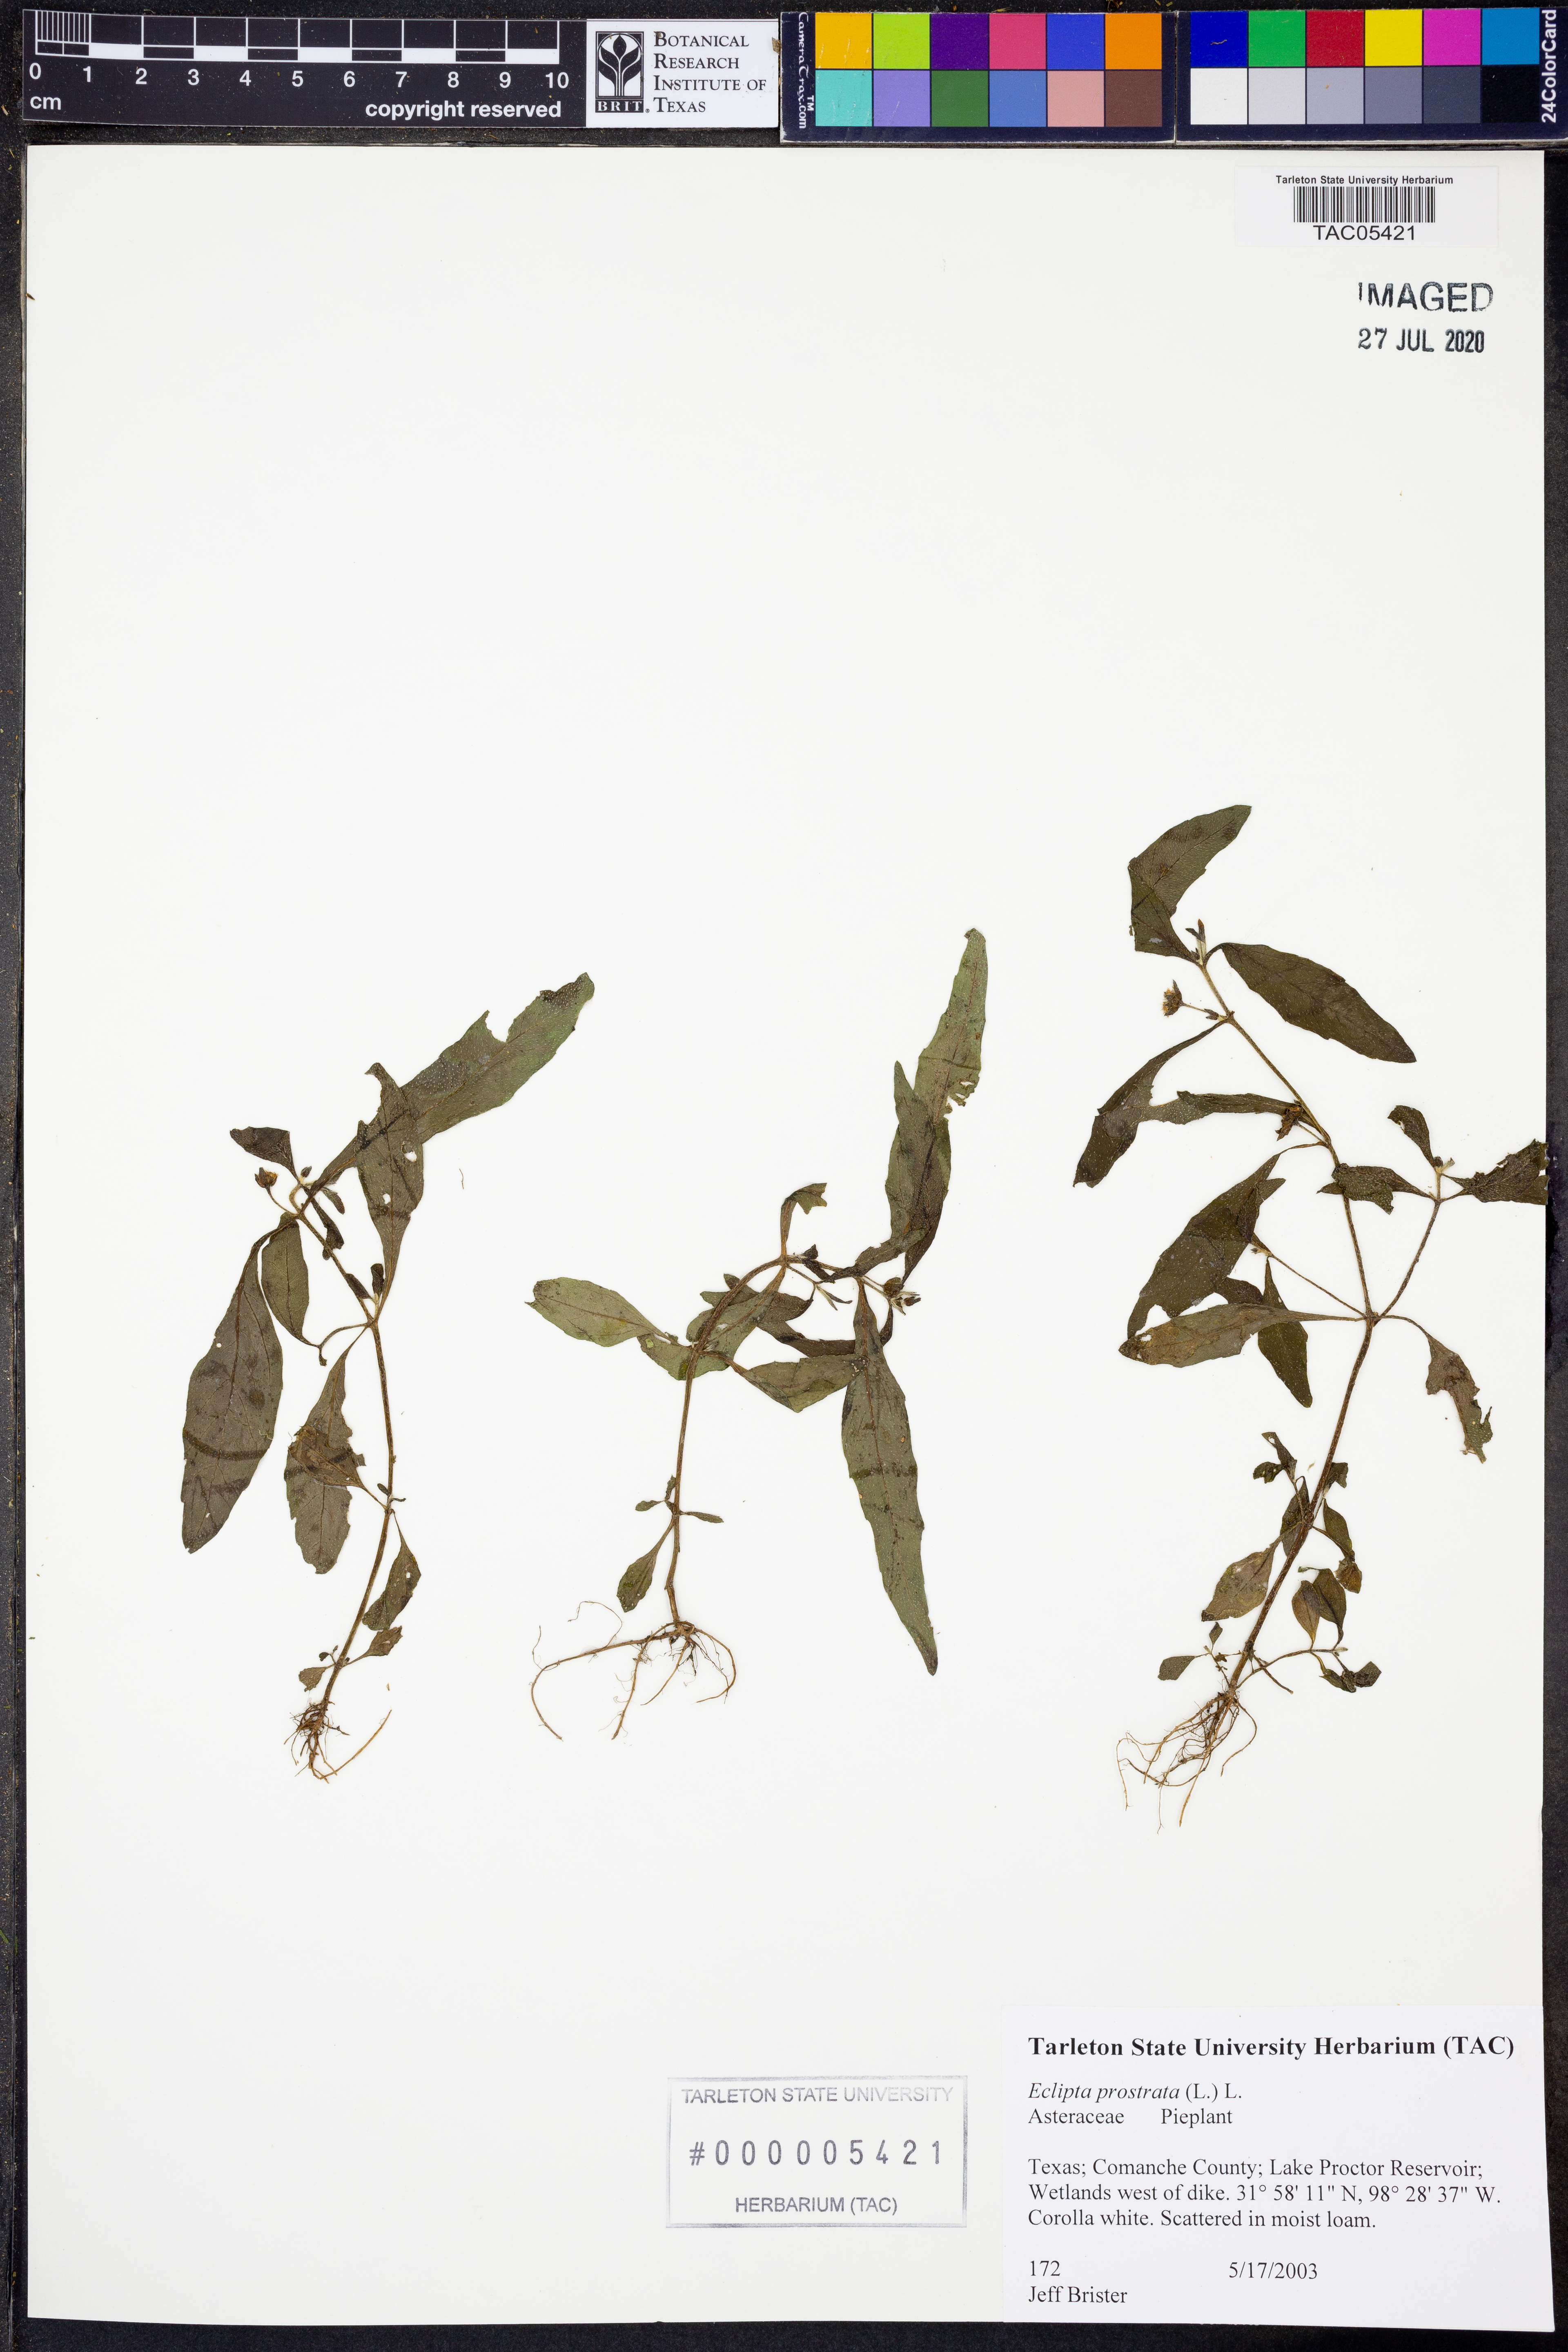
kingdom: Plantae
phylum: Tracheophyta
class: Magnoliopsida
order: Asterales
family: Asteraceae
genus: Eclipta
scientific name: Eclipta prostrata
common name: False daisy
